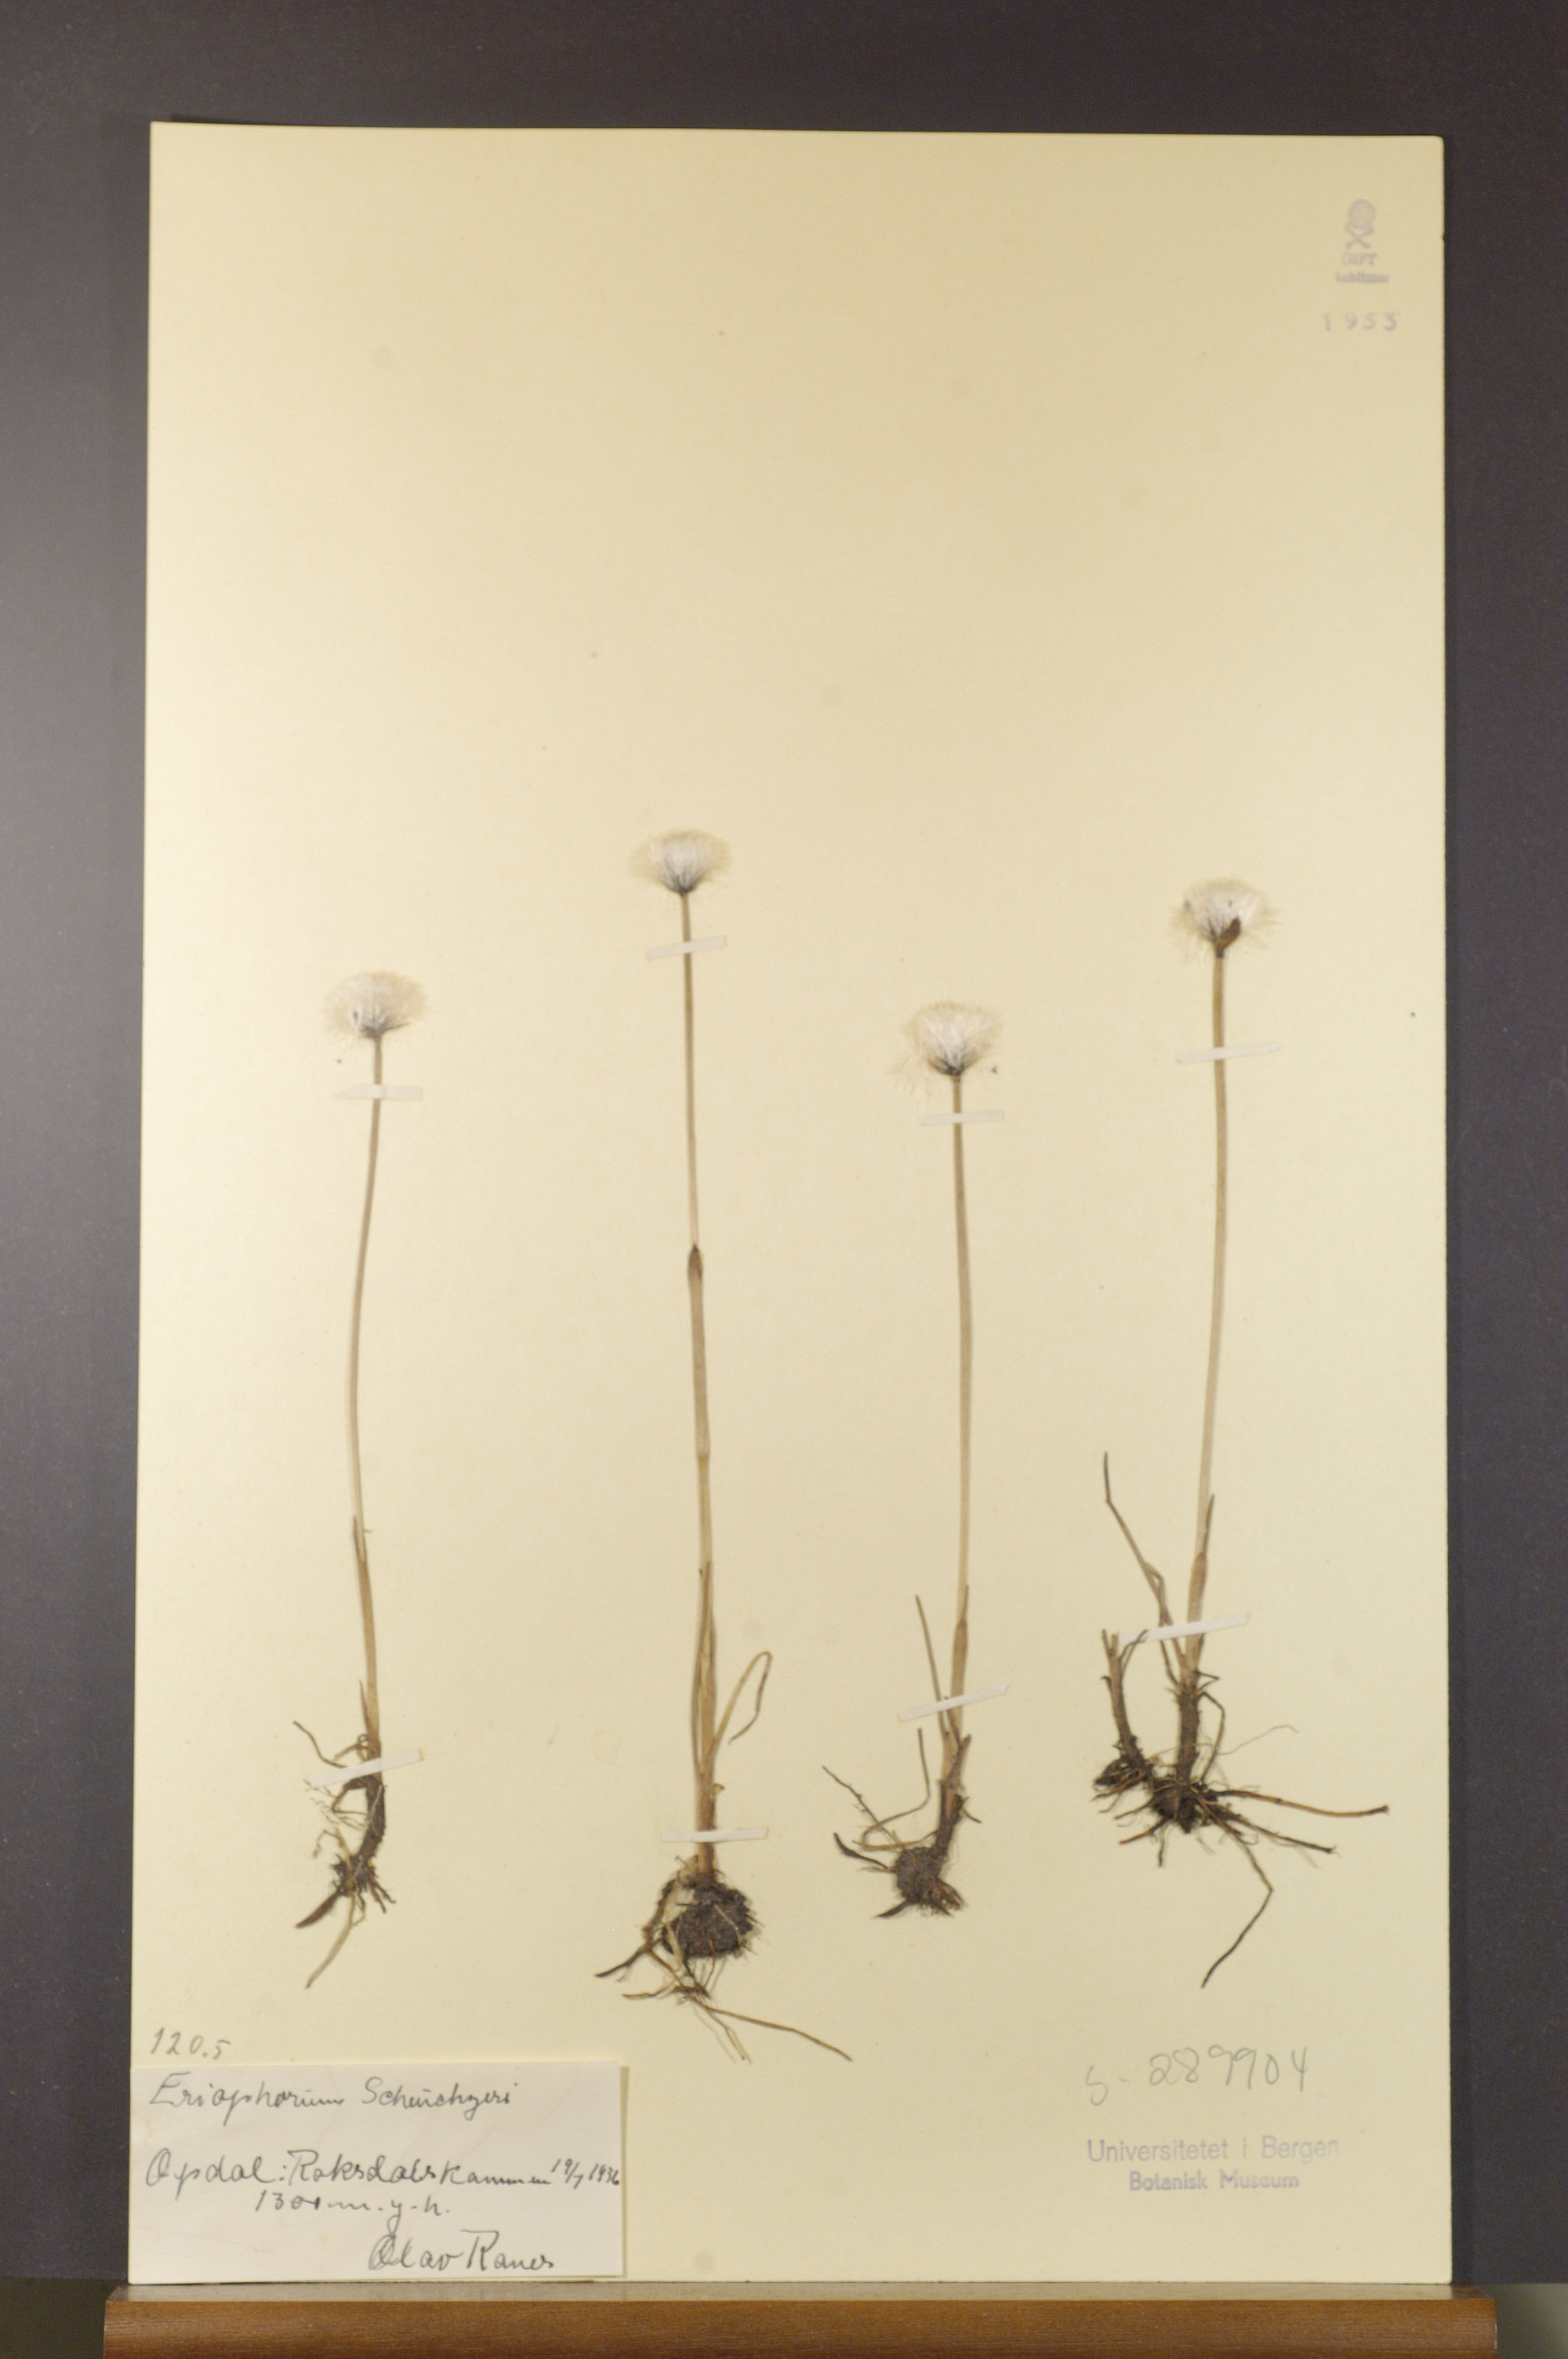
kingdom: Plantae
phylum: Tracheophyta
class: Liliopsida
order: Poales
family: Cyperaceae
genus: Eriophorum
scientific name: Eriophorum scheuchzeri
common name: Scheuchzer's cottongrass
